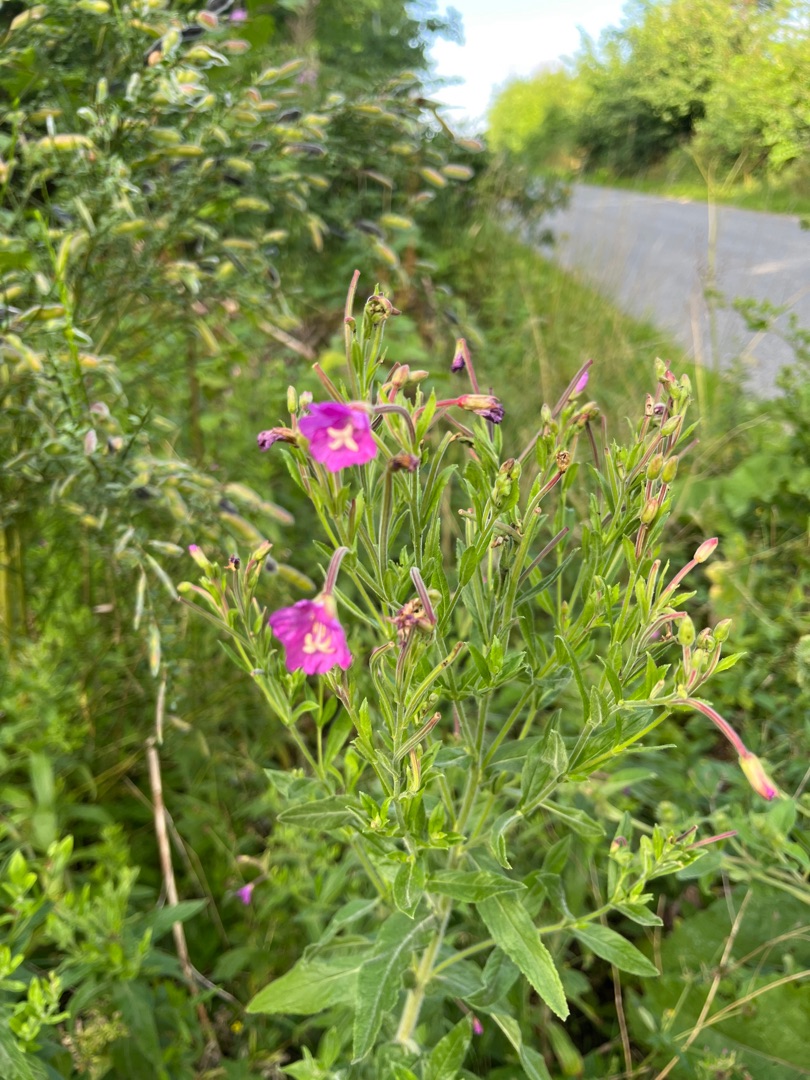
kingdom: Plantae
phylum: Tracheophyta
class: Magnoliopsida
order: Myrtales
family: Onagraceae
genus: Epilobium
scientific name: Epilobium hirsutum
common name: Lådden dueurt
